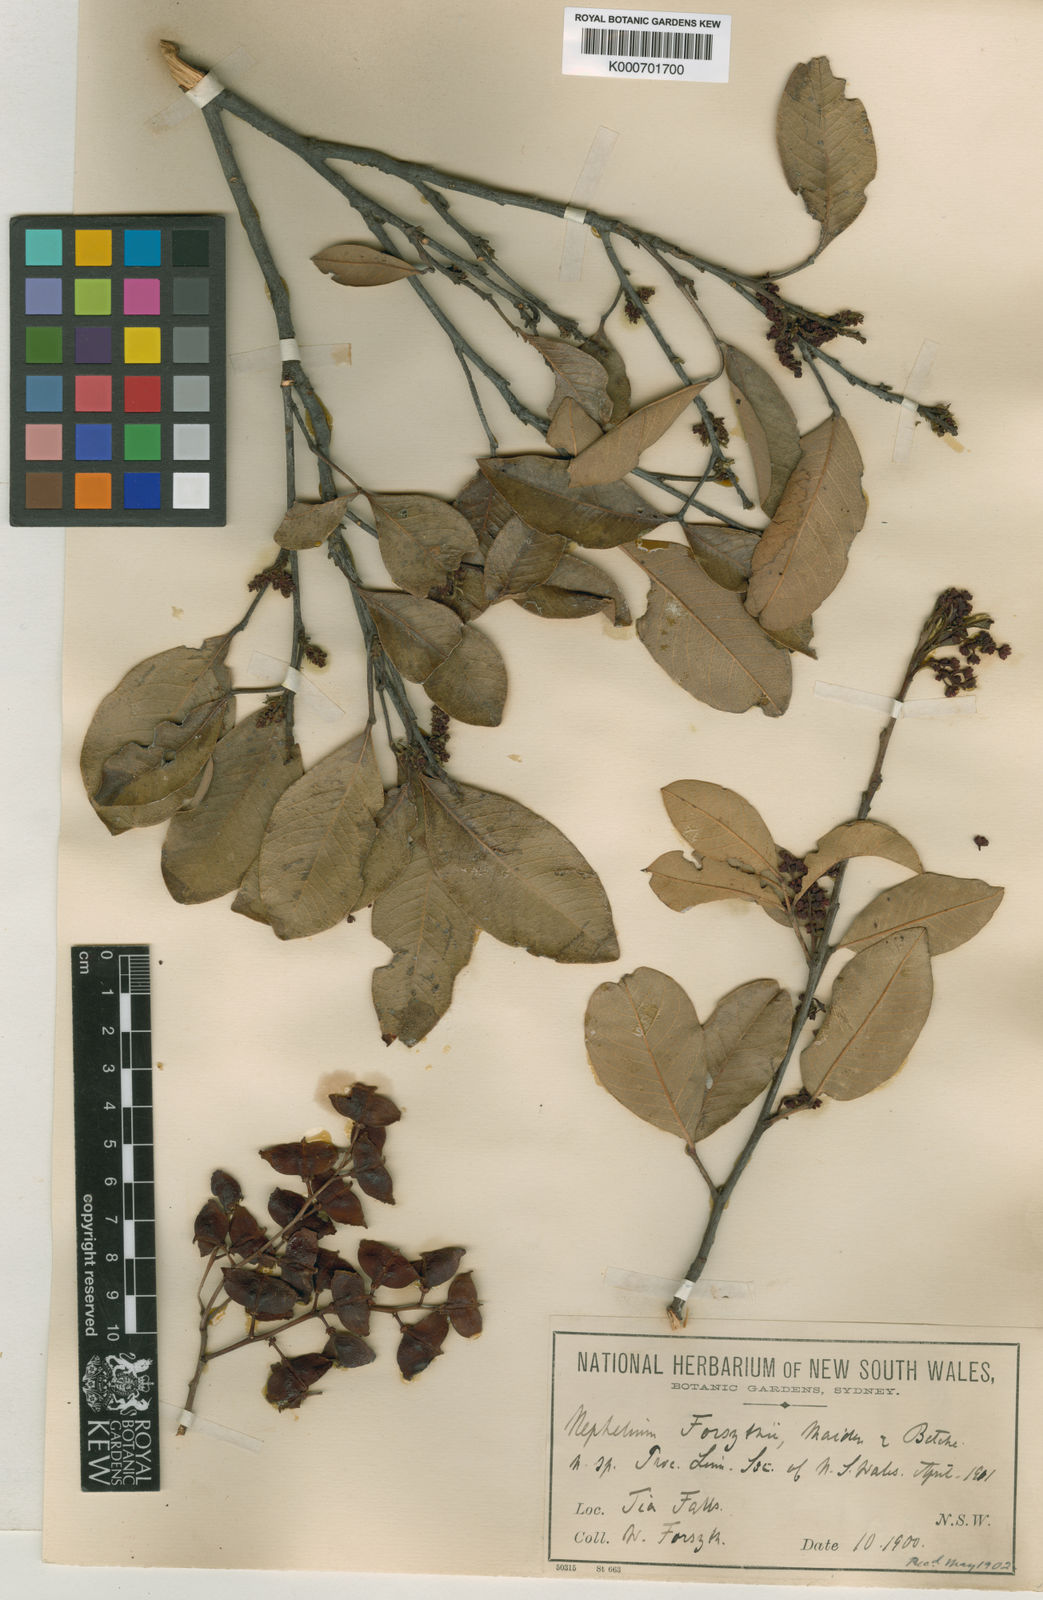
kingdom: Plantae
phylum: Tracheophyta
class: Magnoliopsida
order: Sapindales
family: Sapindaceae
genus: Alectryon
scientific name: Alectryon forsythii
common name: George alectryon
